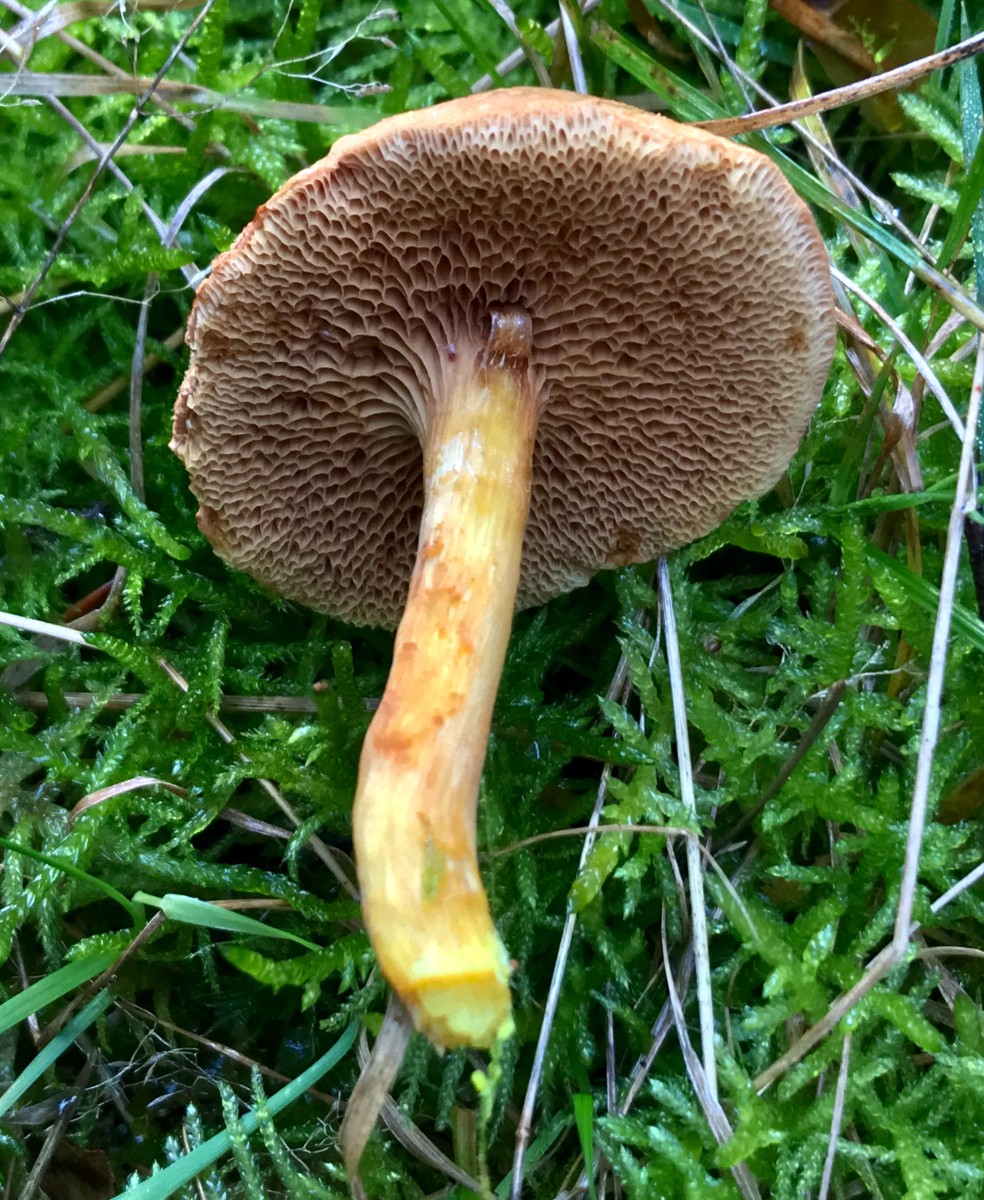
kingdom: Fungi
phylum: Basidiomycota
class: Agaricomycetes
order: Boletales
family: Boletaceae
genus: Chalciporus
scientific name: Chalciporus piperatus
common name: peberrørhat
